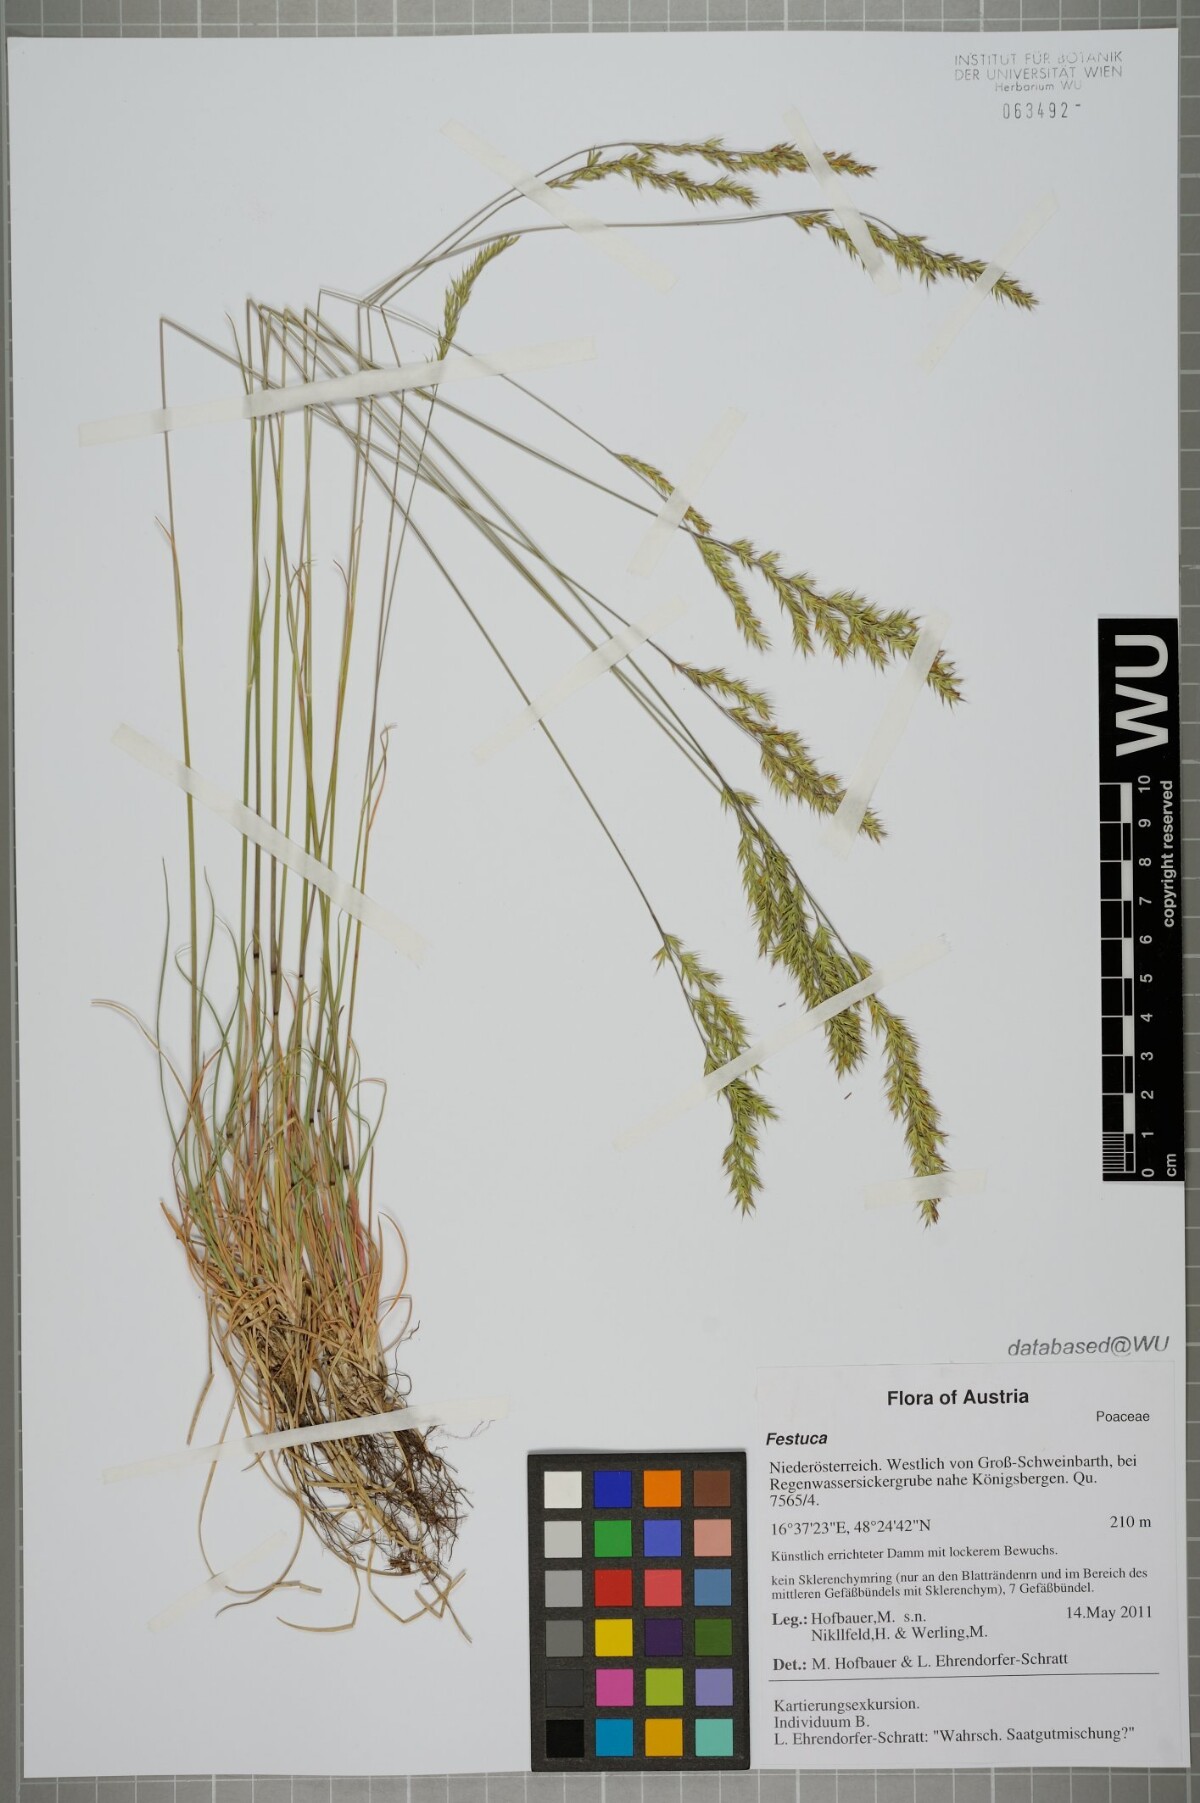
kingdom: Plantae
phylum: Tracheophyta
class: Liliopsida
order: Poales
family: Poaceae
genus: Festuca
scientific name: Festuca
